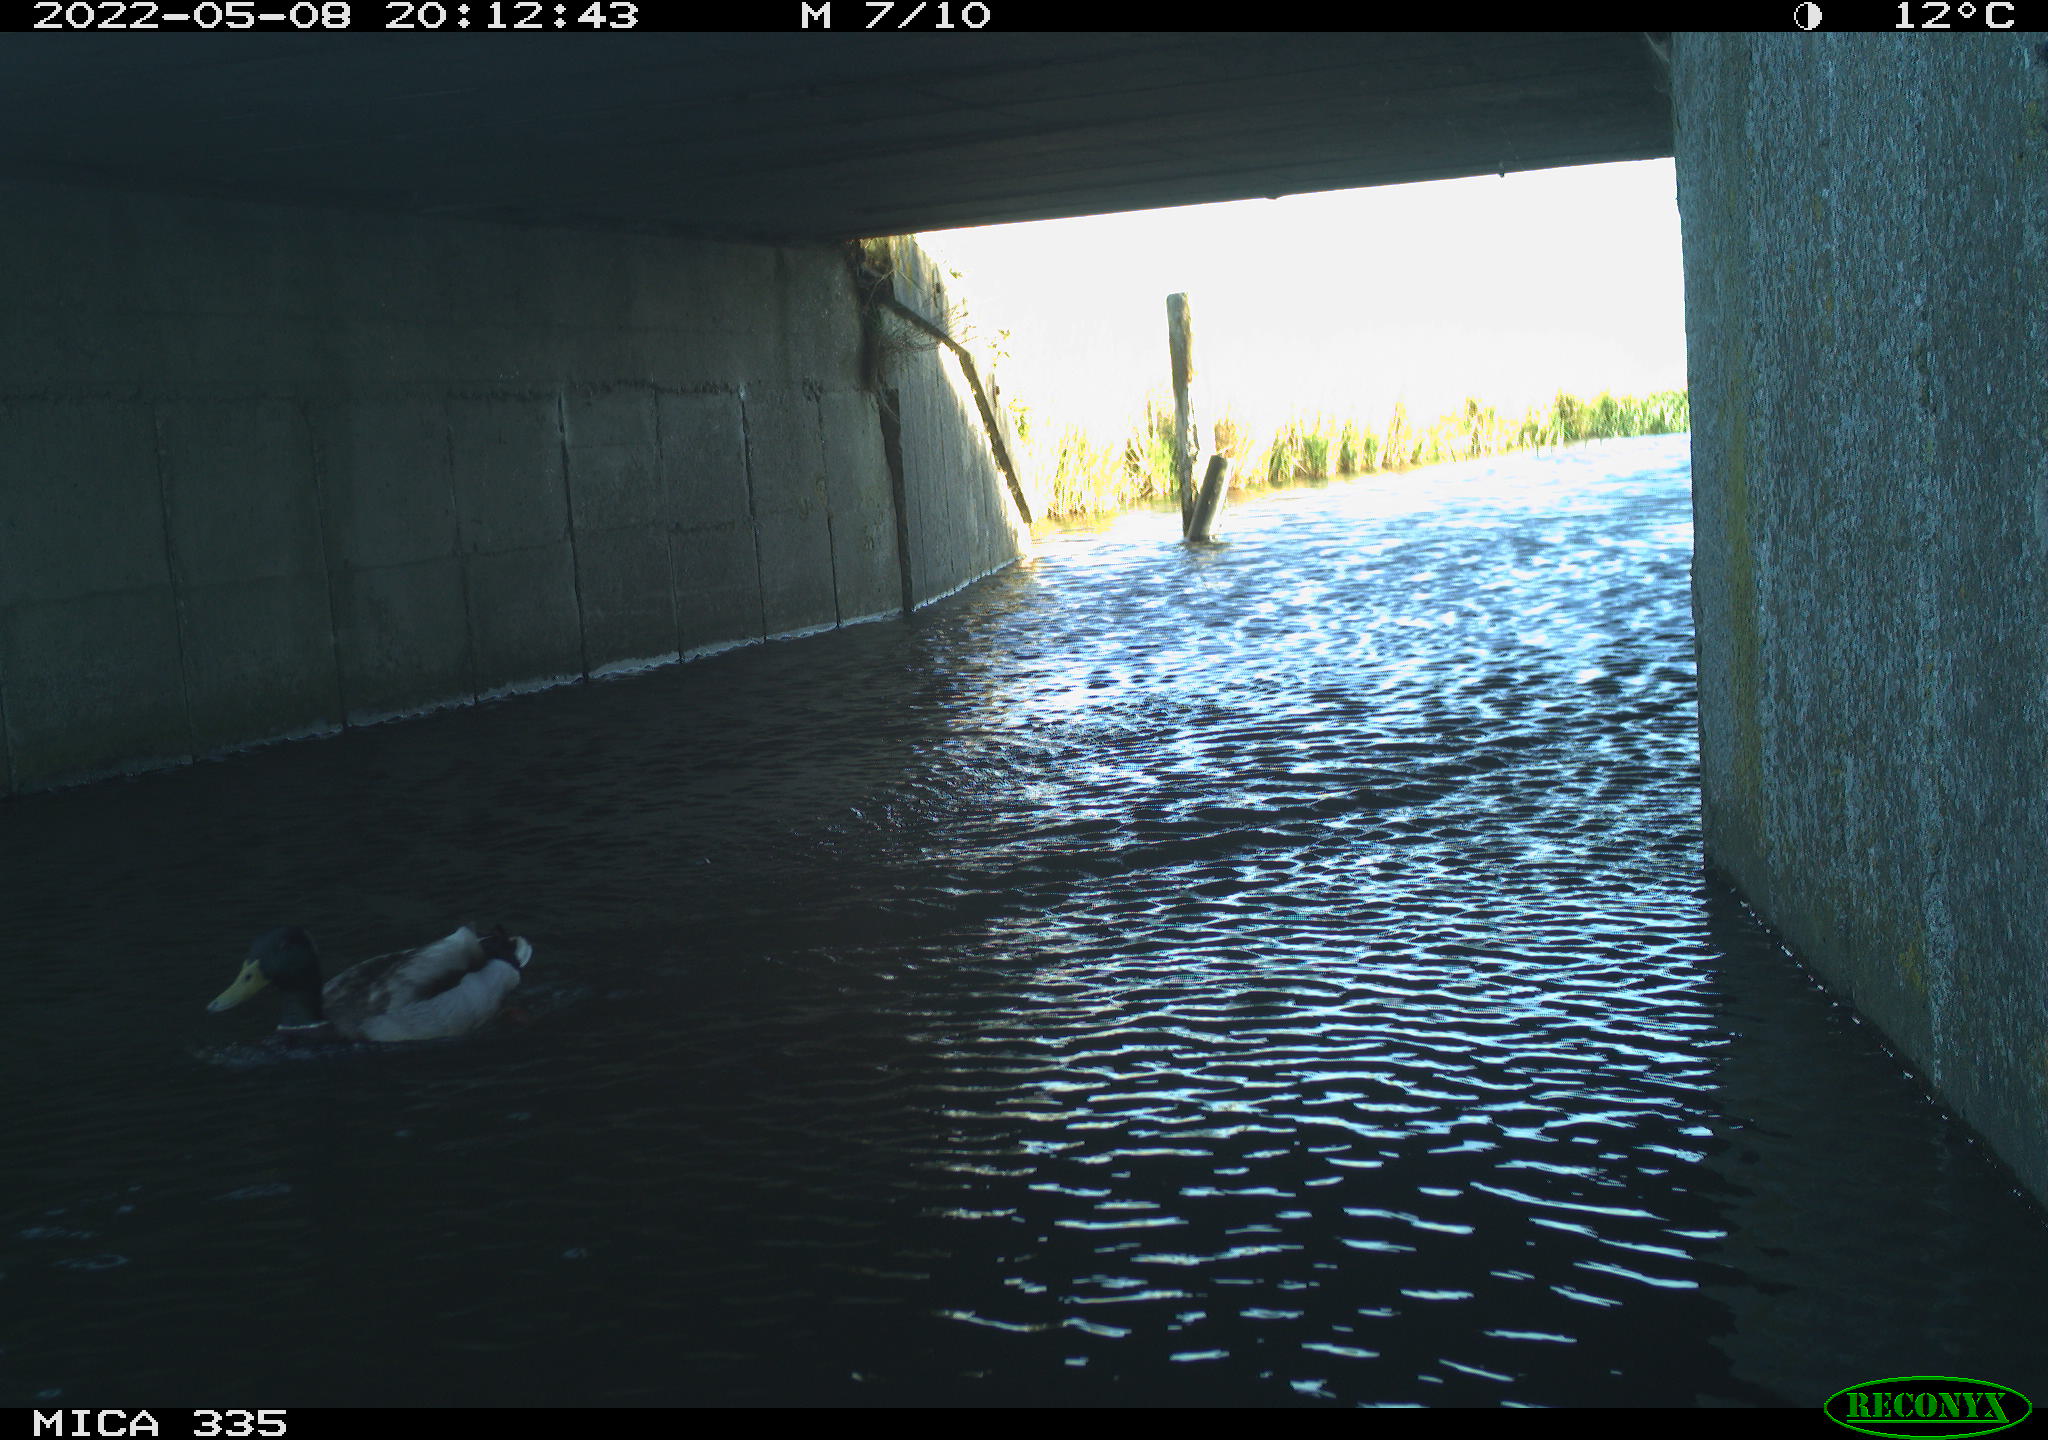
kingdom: Animalia
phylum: Chordata
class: Aves
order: Anseriformes
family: Anatidae
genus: Anas
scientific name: Anas platyrhynchos
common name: Mallard
